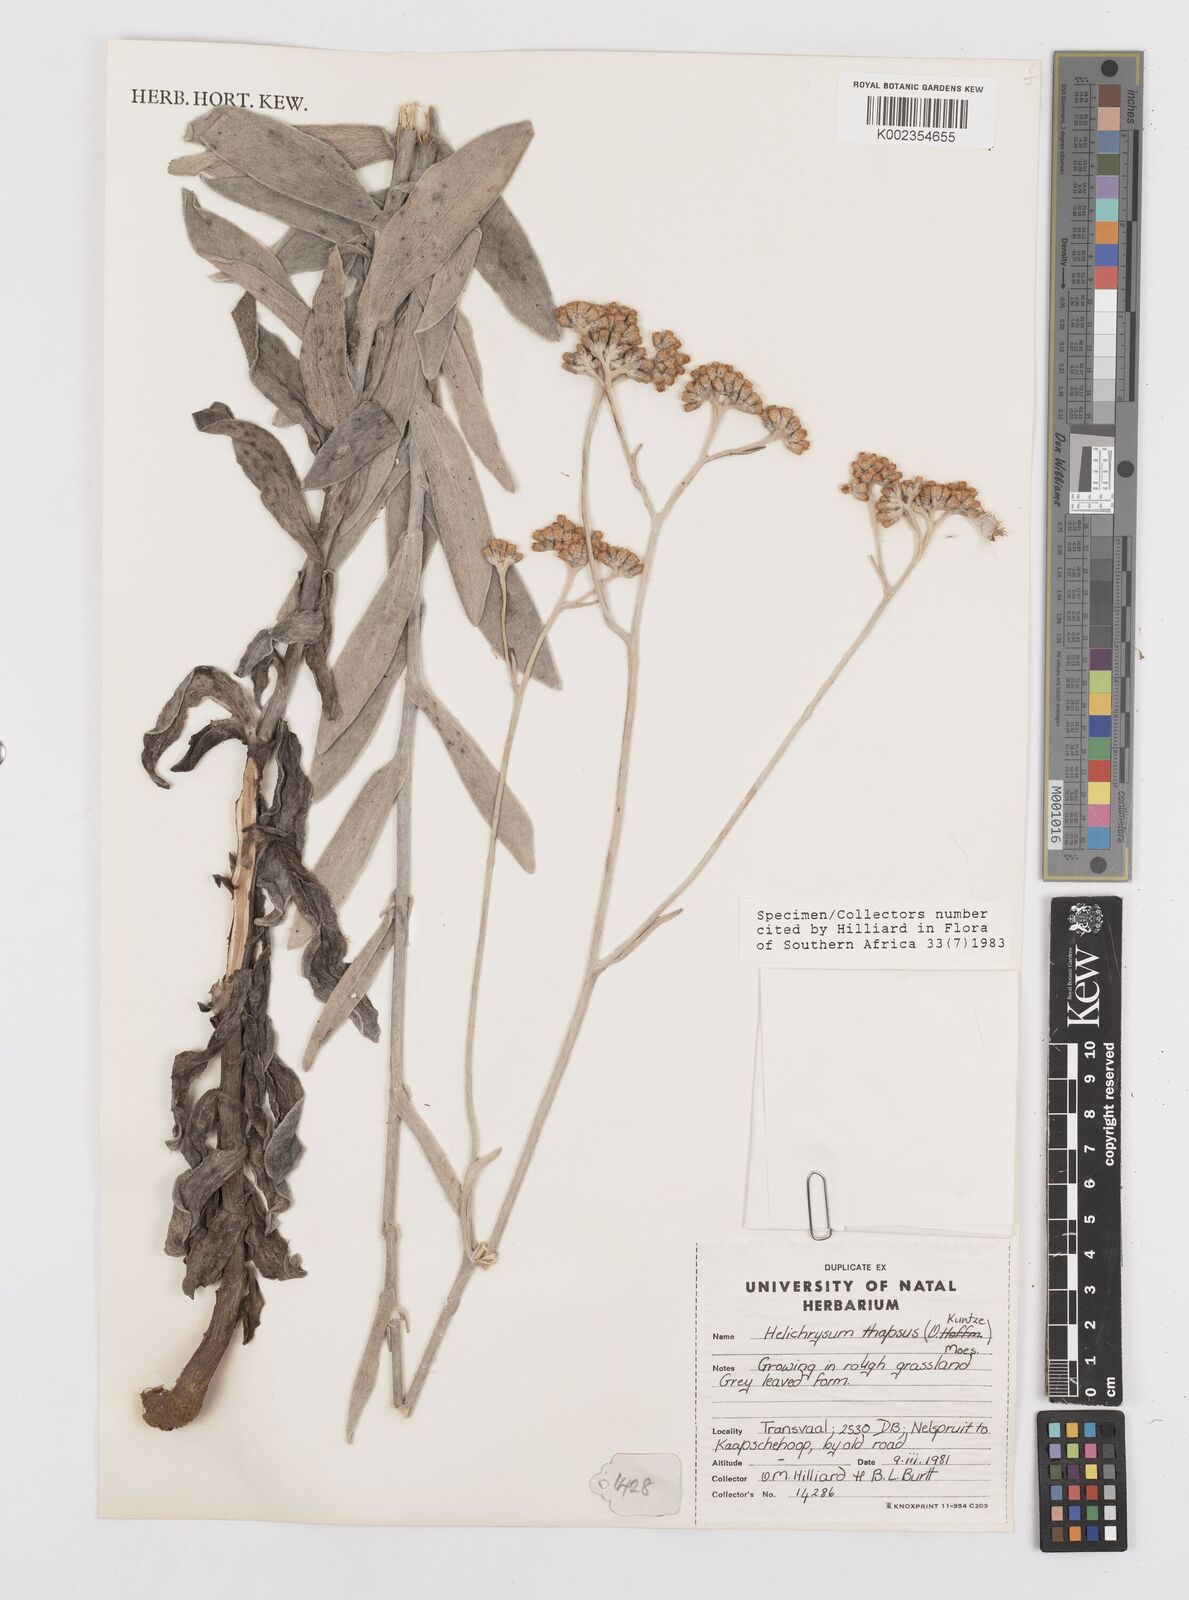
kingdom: Plantae
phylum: Tracheophyta
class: Magnoliopsida
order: Asterales
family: Asteraceae
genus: Helichrysum
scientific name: Helichrysum thapsus
